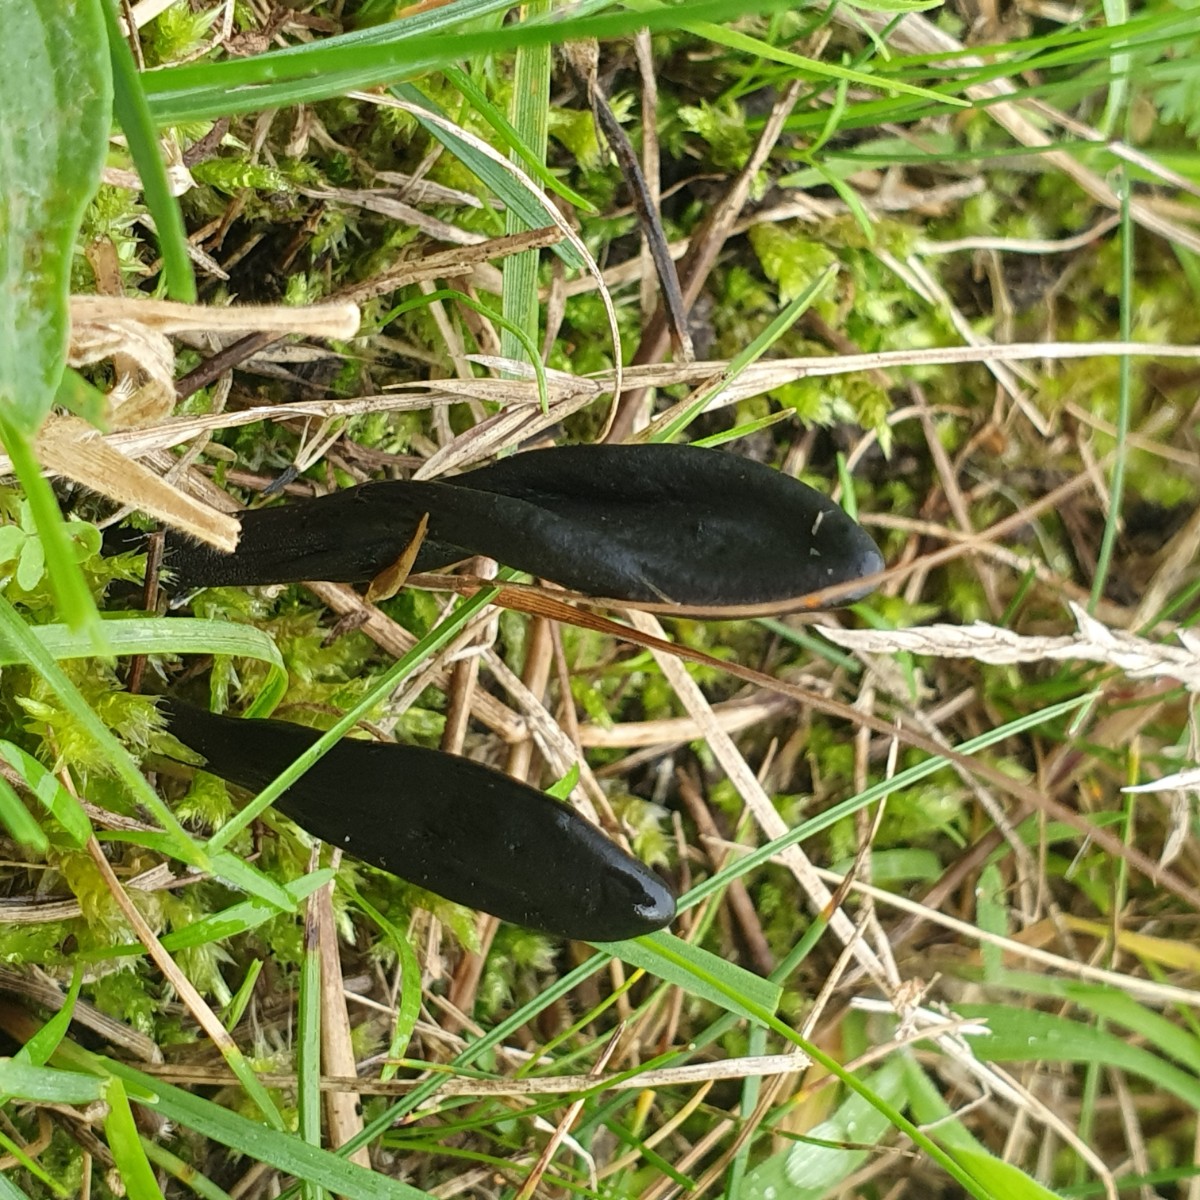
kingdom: Fungi
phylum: Ascomycota
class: Geoglossomycetes
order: Geoglossales
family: Geoglossaceae
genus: Geoglossum
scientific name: Geoglossum cookeianum
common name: bred jordtunge
